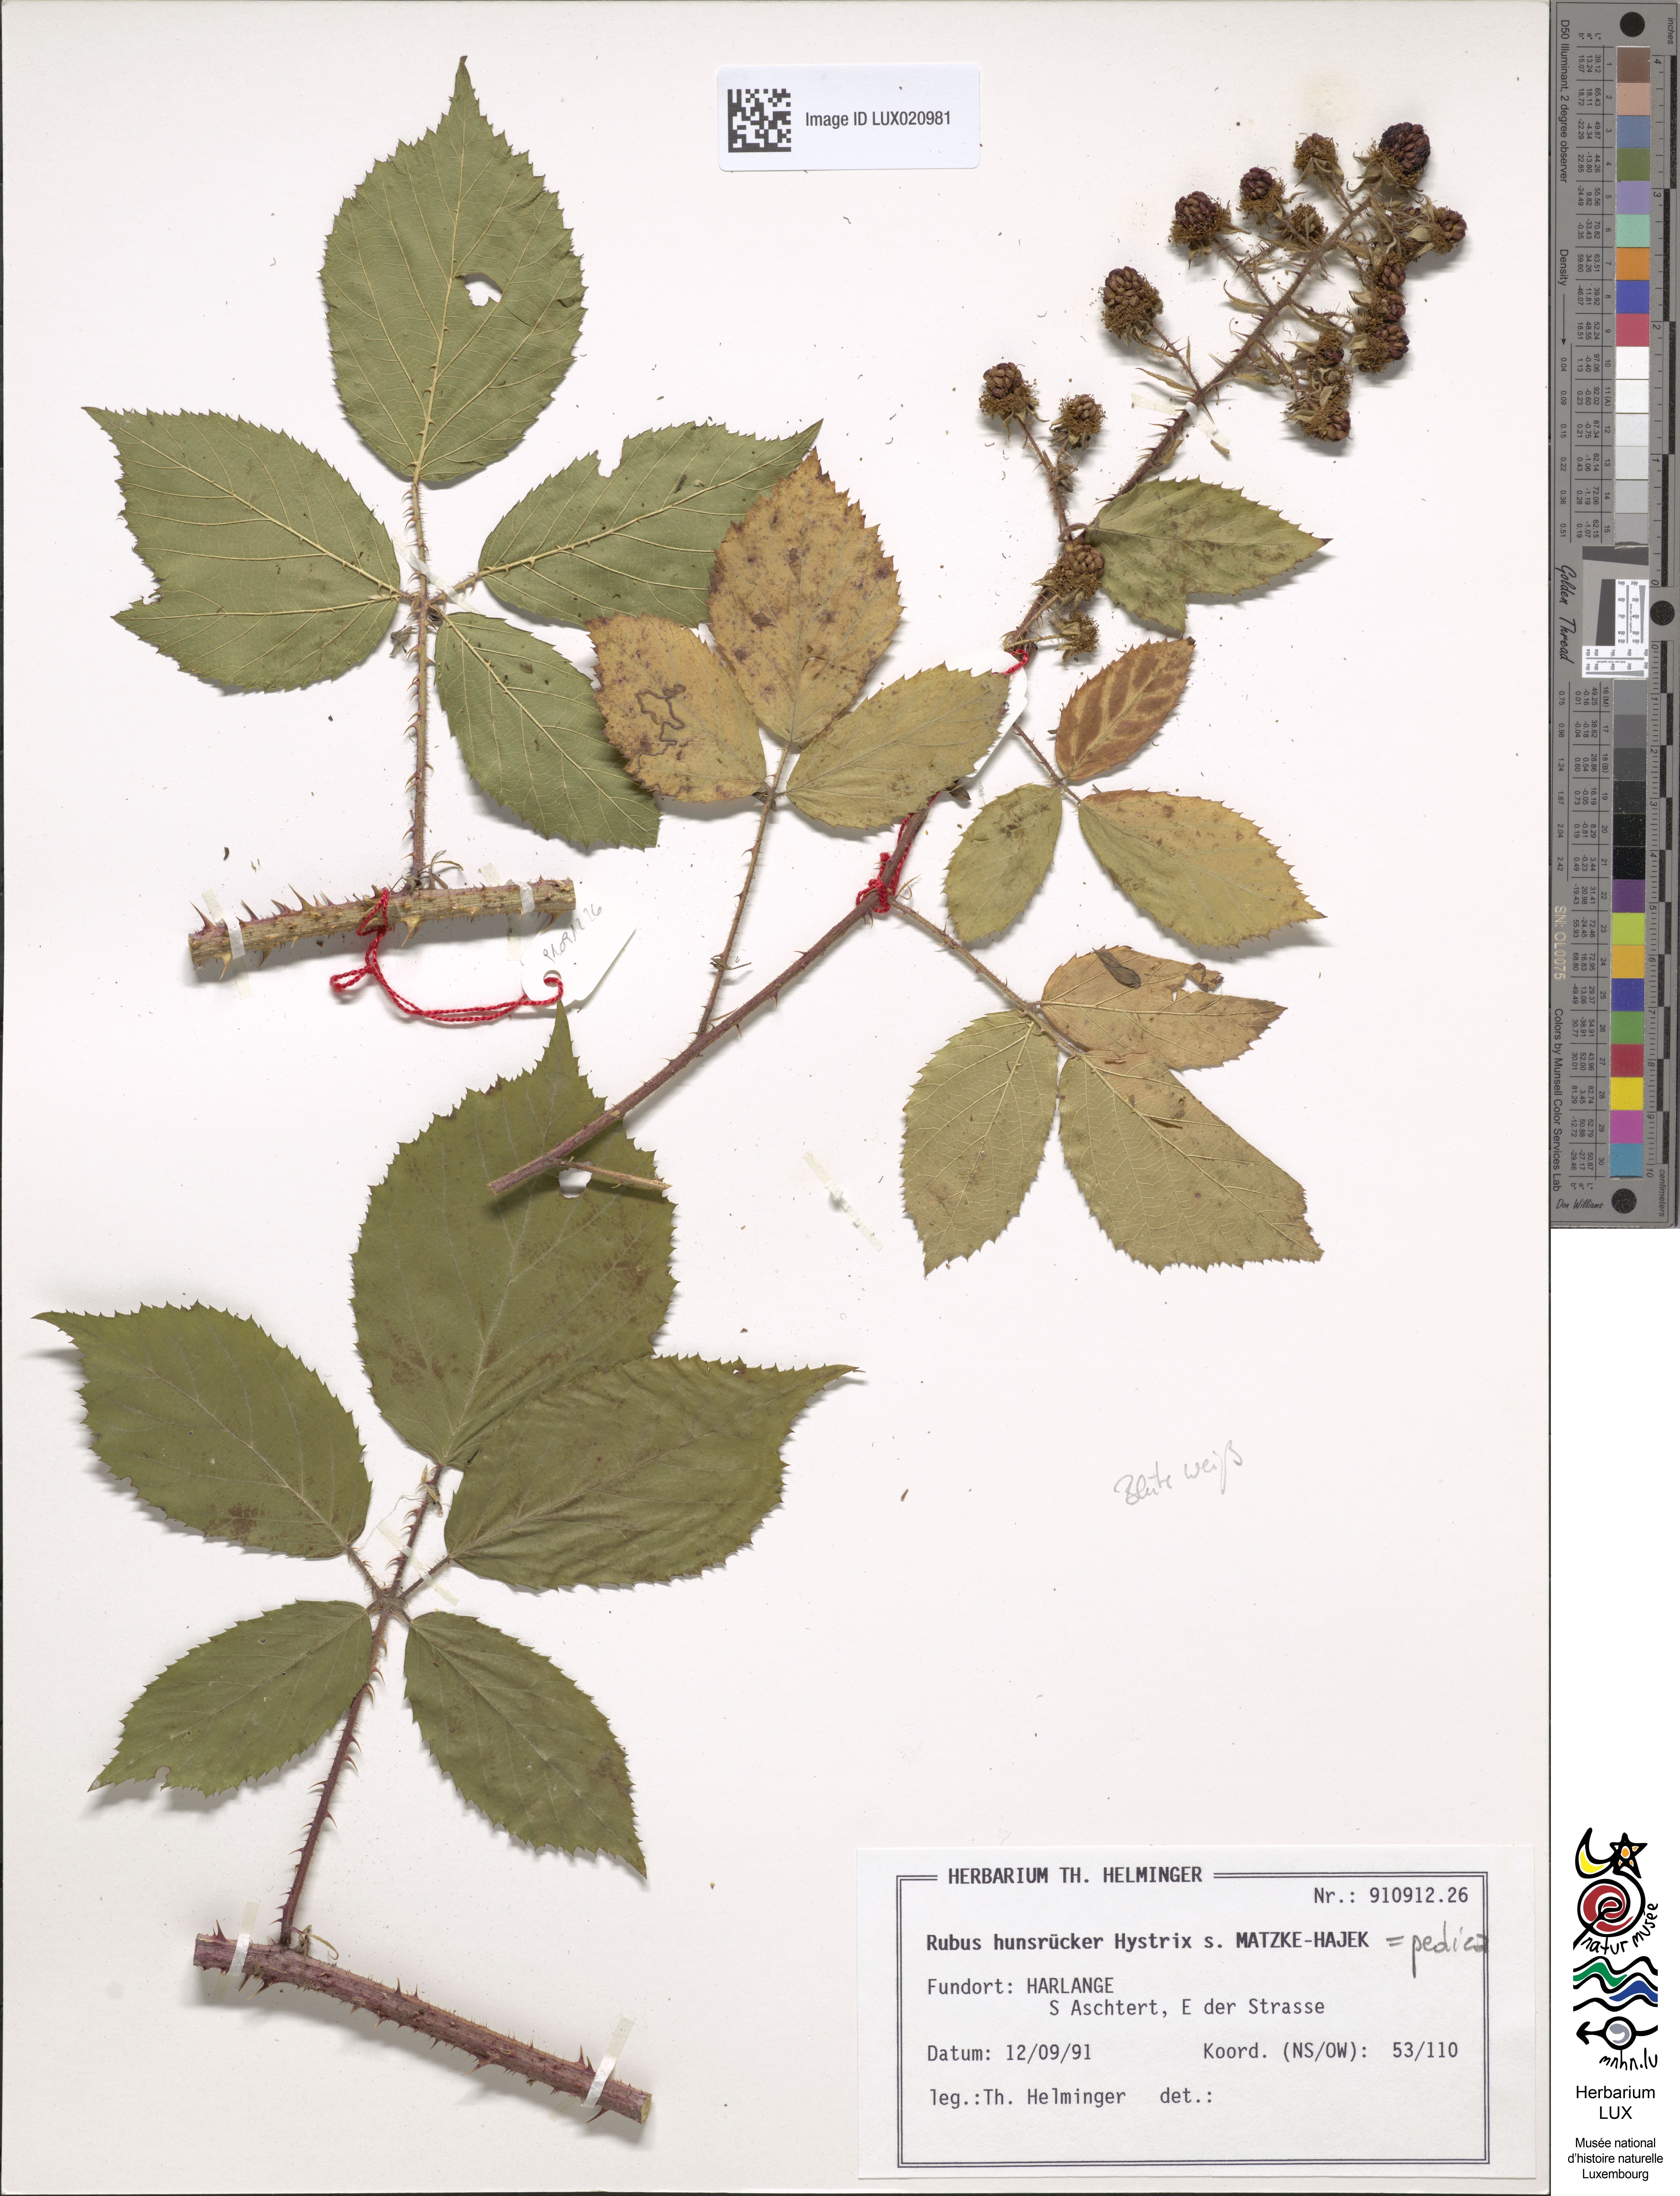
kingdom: Plantae
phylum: Tracheophyta
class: Magnoliopsida
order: Rosales
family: Rosaceae
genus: Rubus
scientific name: Rubus pedica
